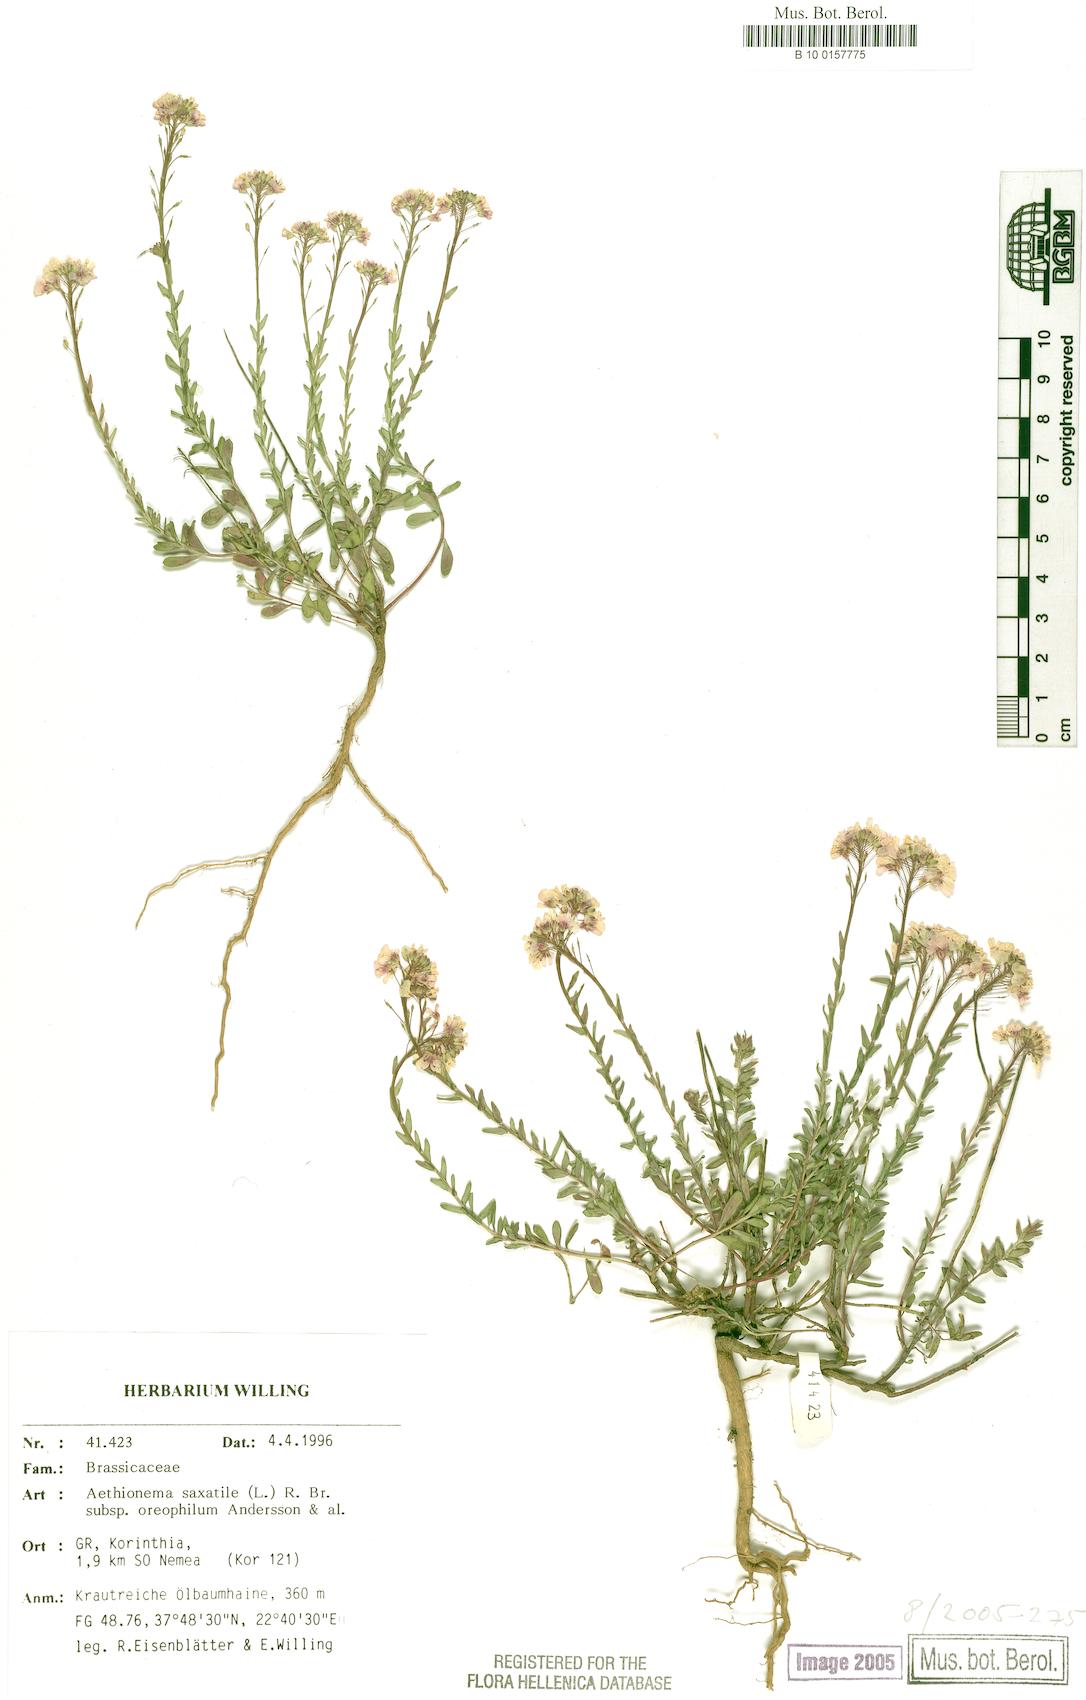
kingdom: Plantae
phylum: Tracheophyta
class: Magnoliopsida
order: Brassicales
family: Brassicaceae
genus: Aethionema
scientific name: Aethionema saxatile
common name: Burnt candytuft
